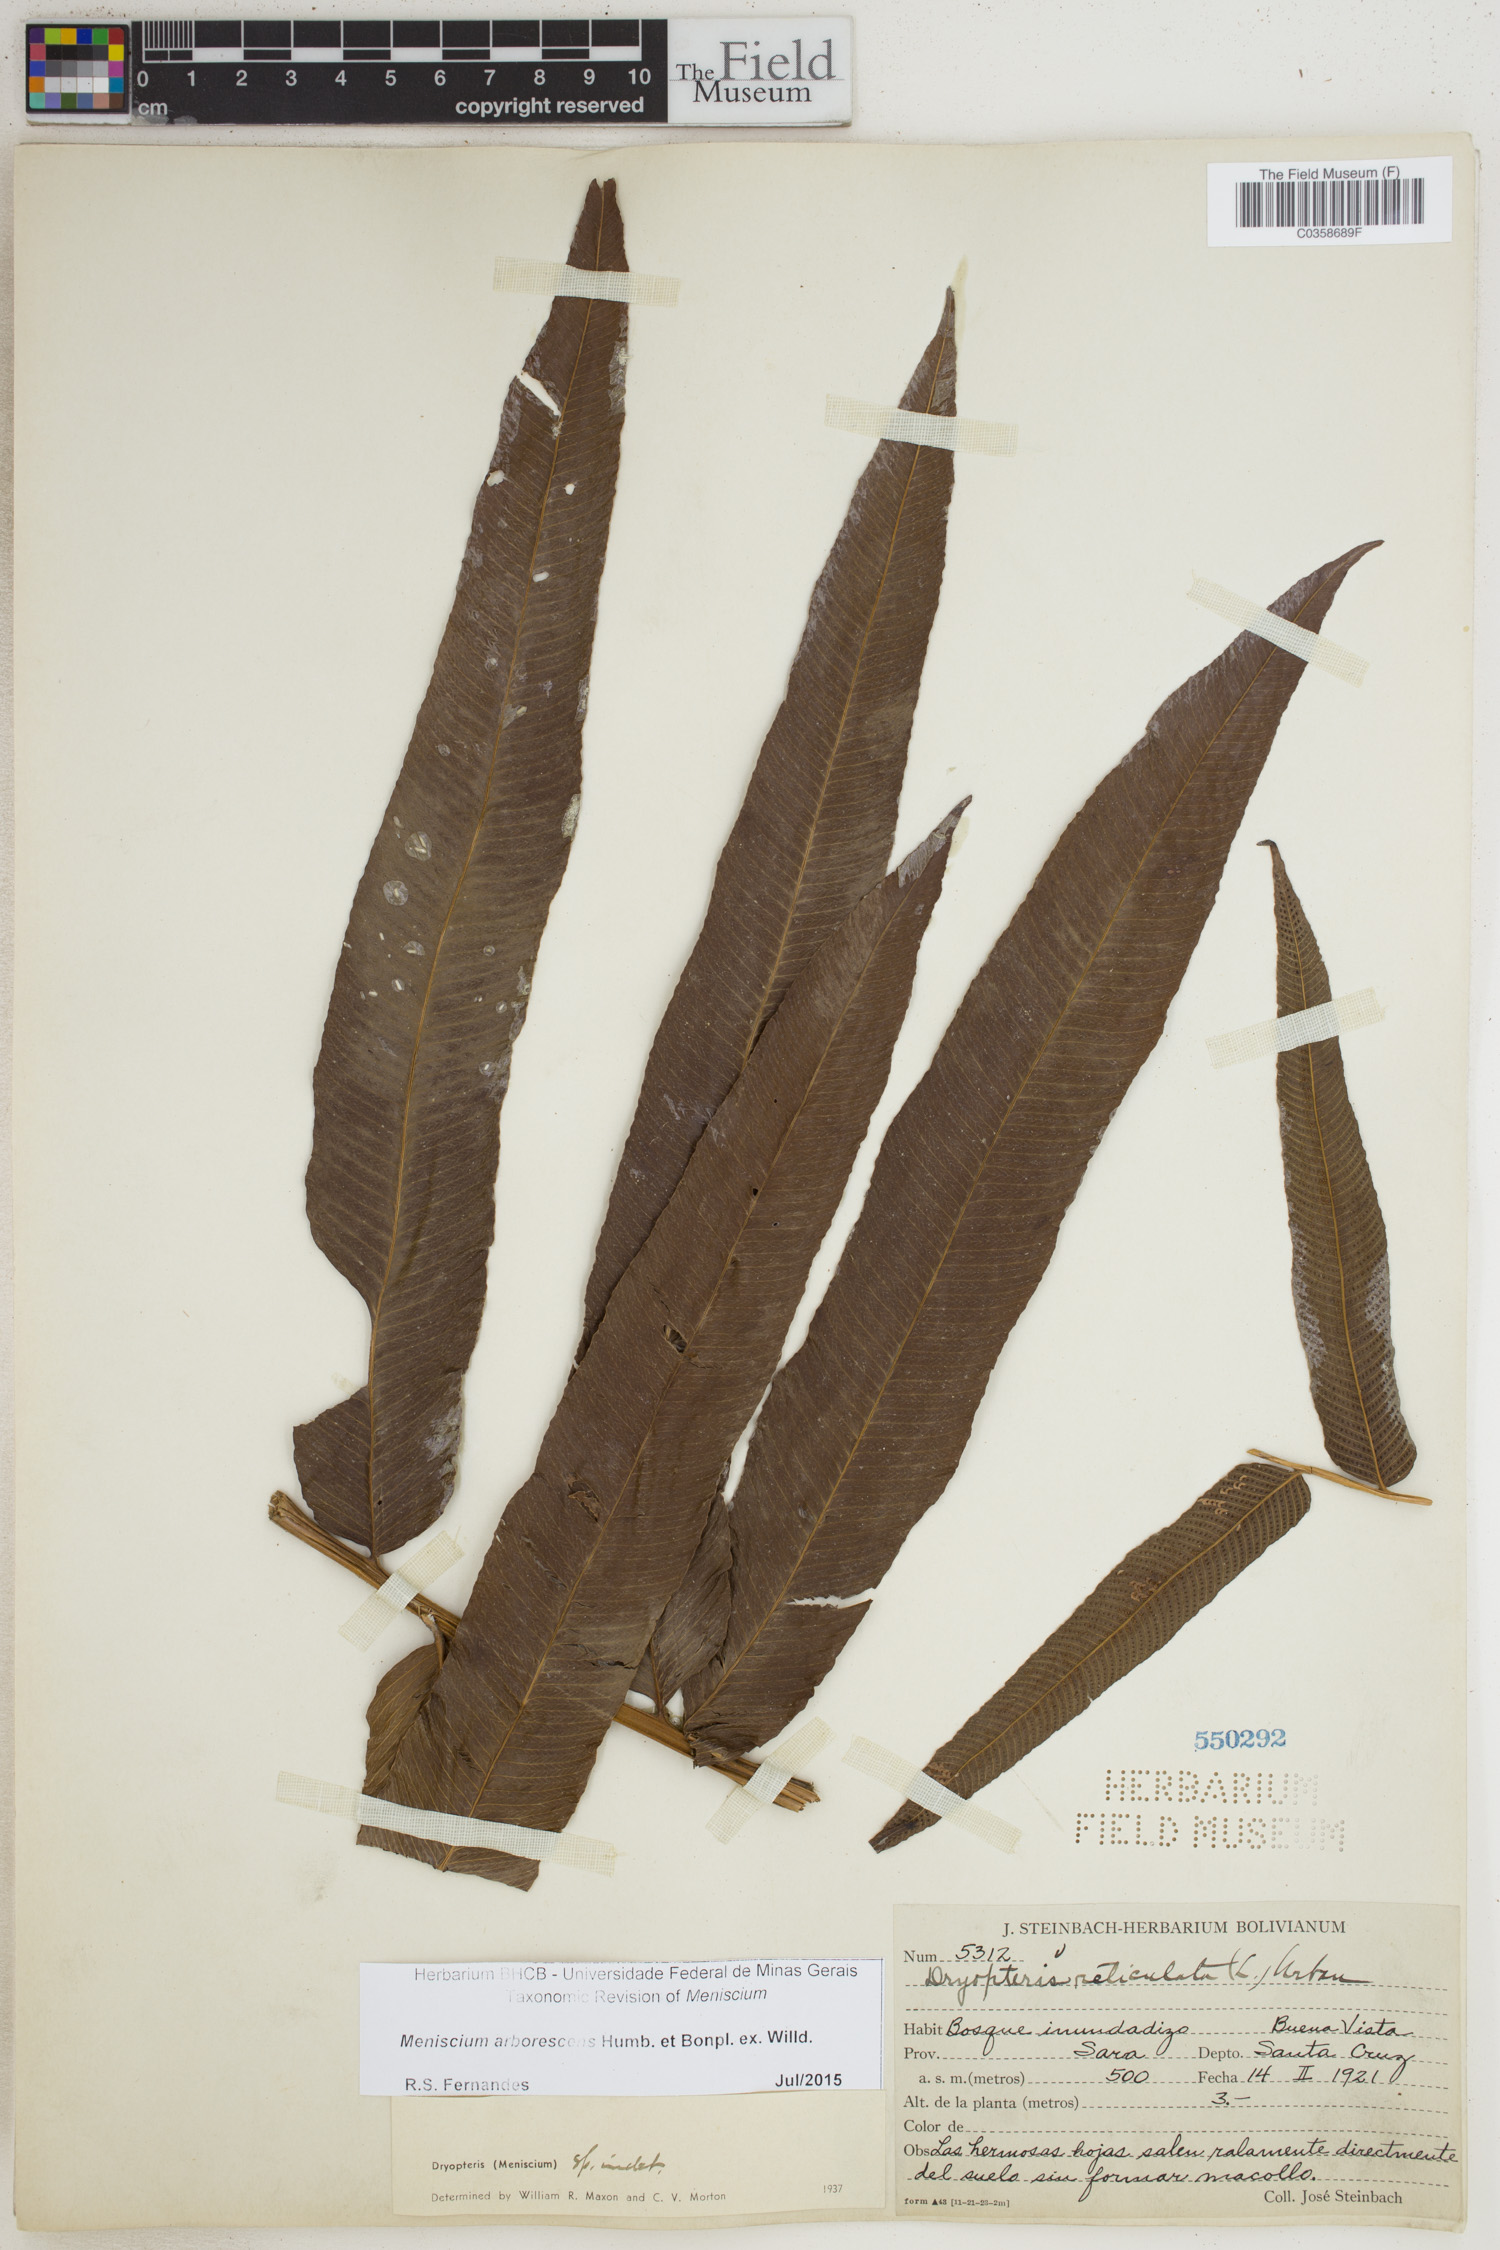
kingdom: Plantae
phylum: Tracheophyta
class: Polypodiopsida
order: Polypodiales
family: Thelypteridaceae
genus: Meniscium
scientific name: Meniscium arborescens
